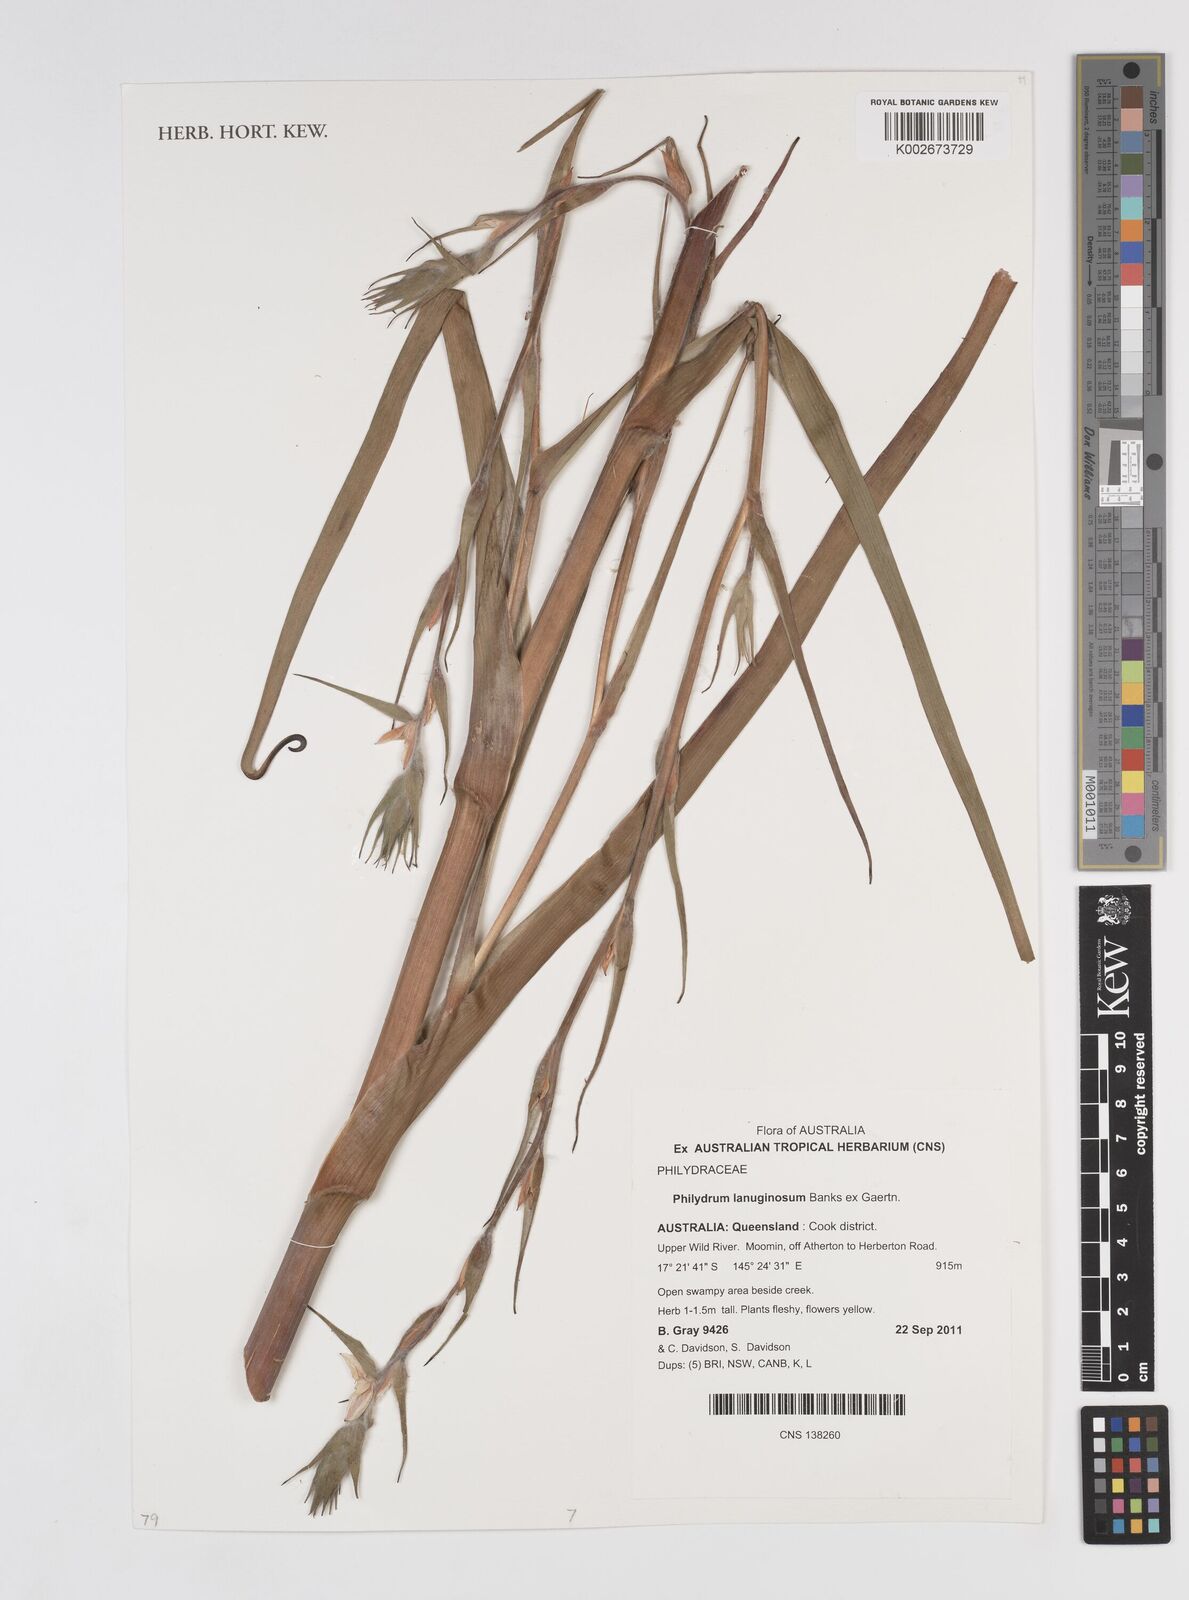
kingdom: Plantae
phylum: Tracheophyta
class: Liliopsida
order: Commelinales
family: Philydraceae
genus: Philydrum
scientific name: Philydrum lanuginosum
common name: Woolly frog's mouth
